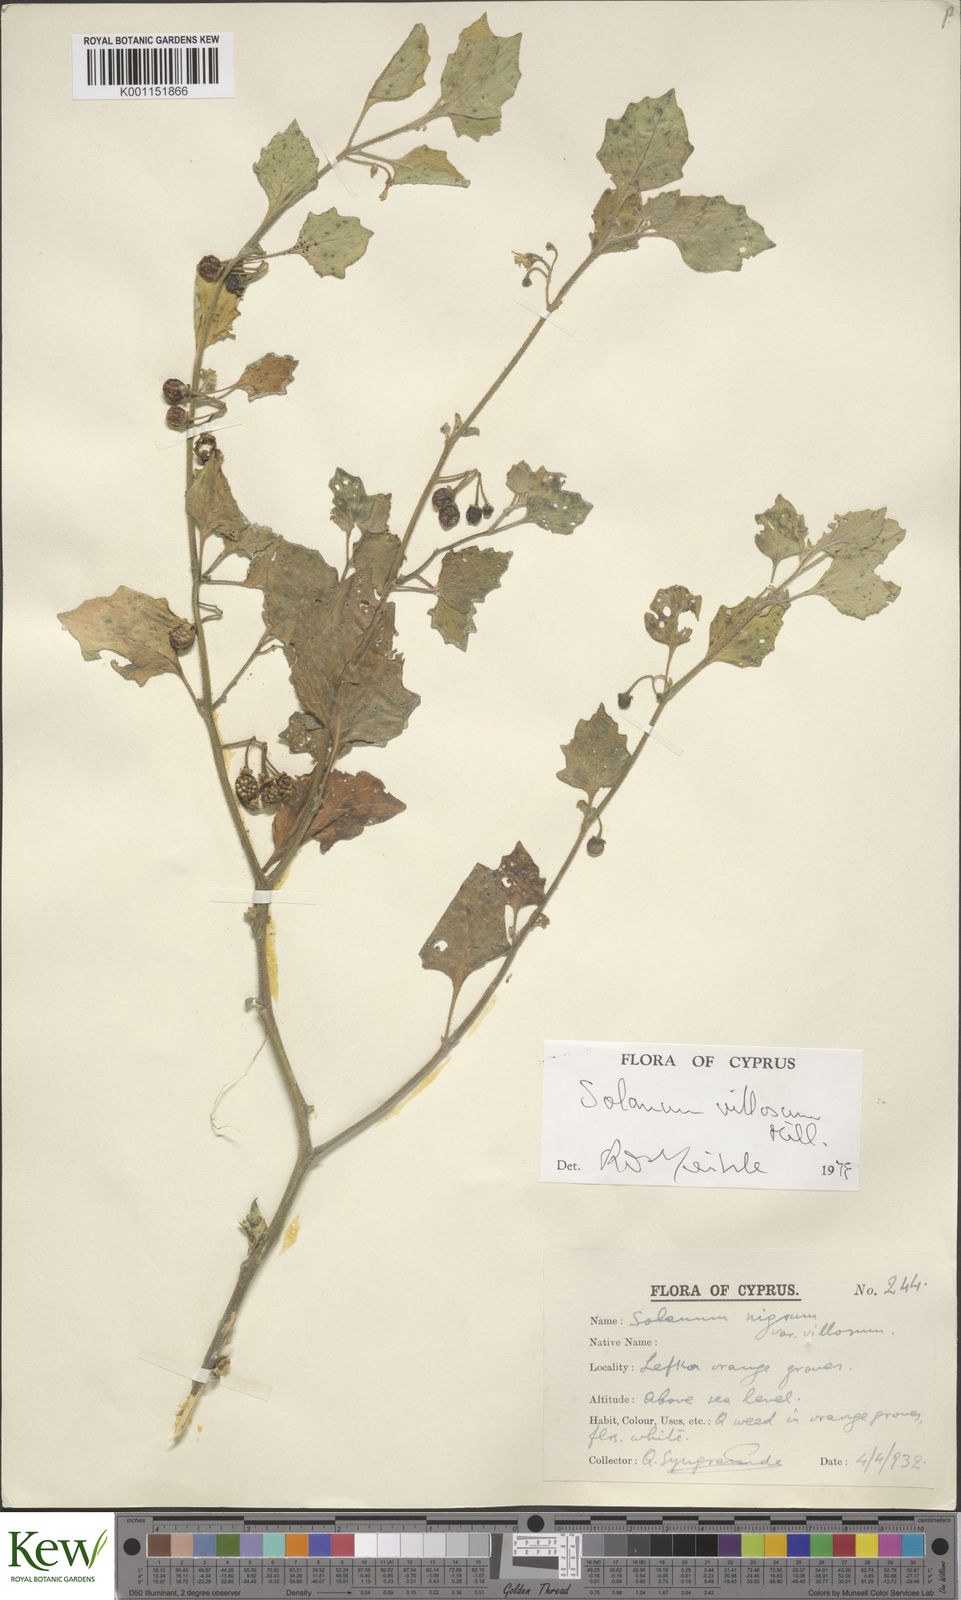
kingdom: Plantae
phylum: Tracheophyta
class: Magnoliopsida
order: Solanales
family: Solanaceae
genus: Solanum
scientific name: Solanum villosum
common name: Red nightshade
